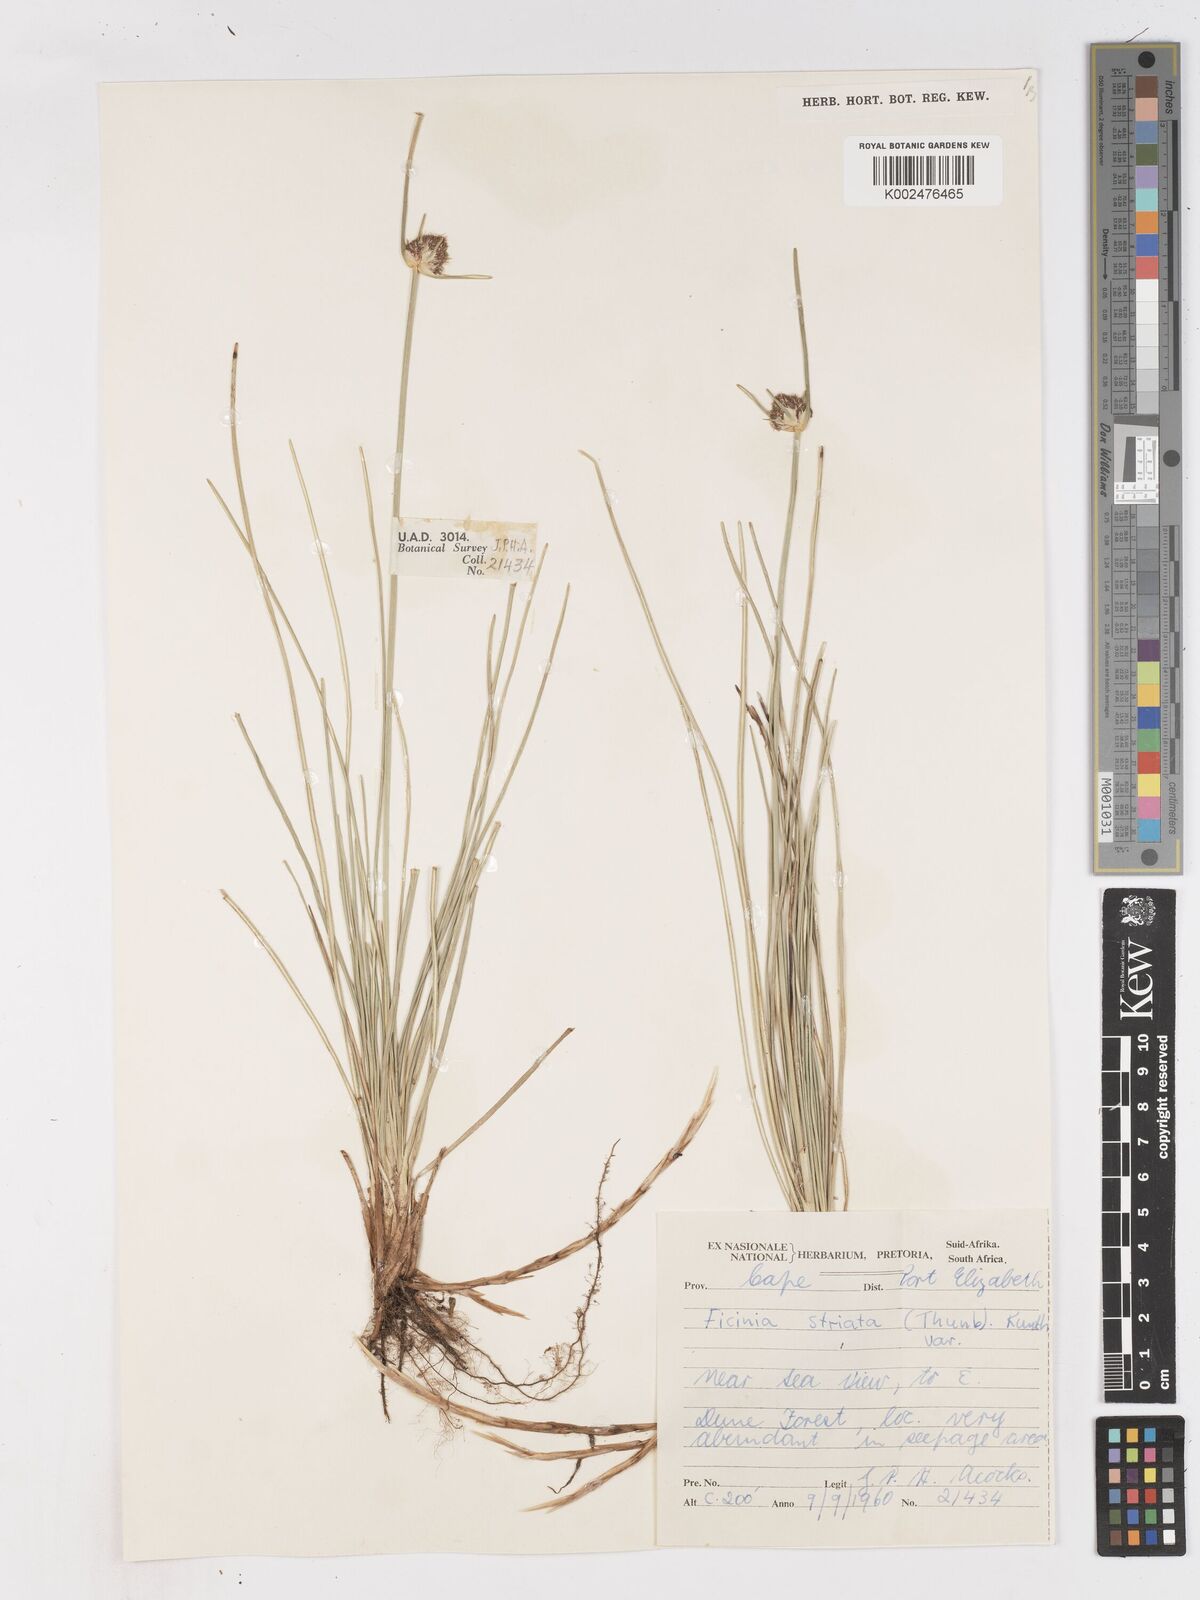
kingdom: Plantae
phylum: Tracheophyta
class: Liliopsida
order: Poales
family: Cyperaceae
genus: Ficinia
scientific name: Ficinia indica
